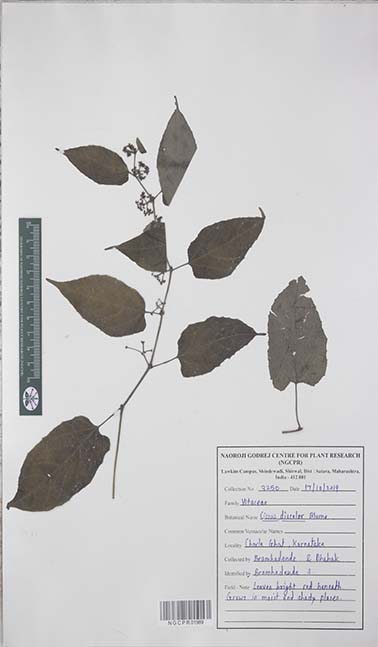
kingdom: Plantae
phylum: Tracheophyta
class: Magnoliopsida
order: Vitales
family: Vitaceae
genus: Cissus
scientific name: Cissus discolor
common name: Climbing-begonia
